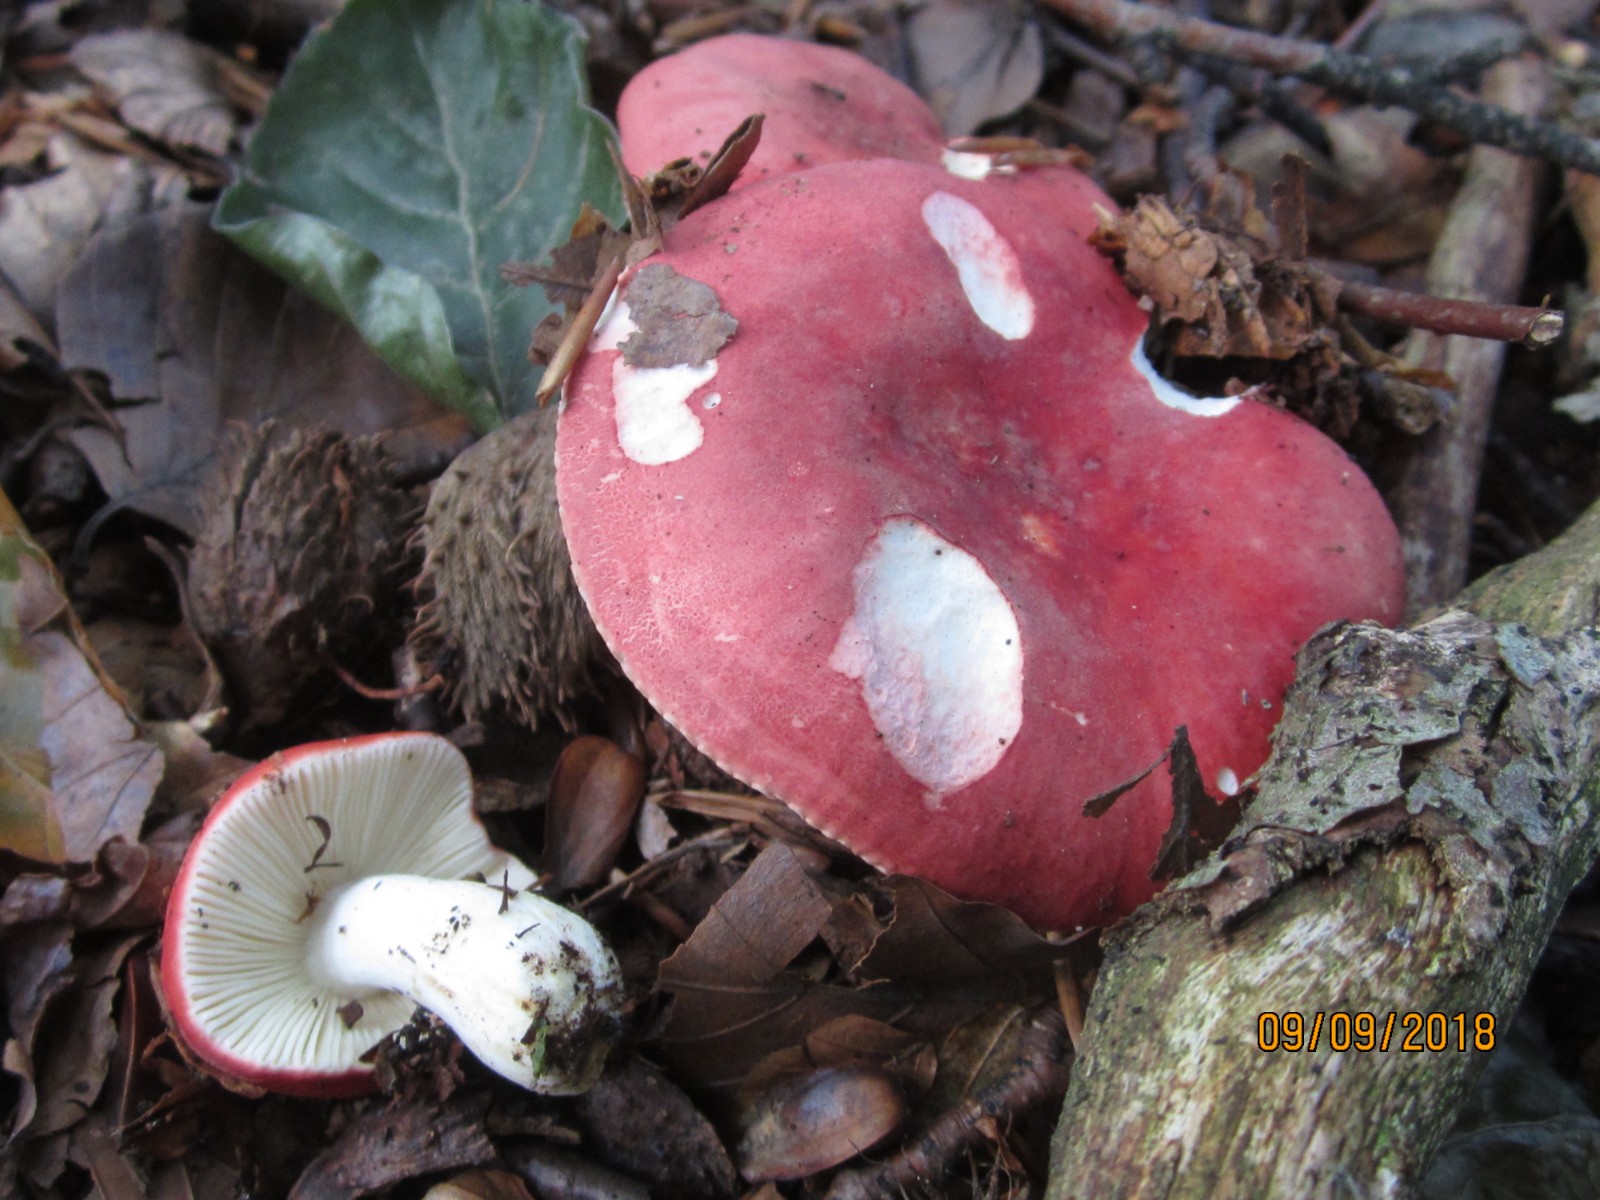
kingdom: Fungi
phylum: Basidiomycota
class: Agaricomycetes
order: Russulales
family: Russulaceae
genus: Russula
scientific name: Russula rosea
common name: fastkødet skørhat
